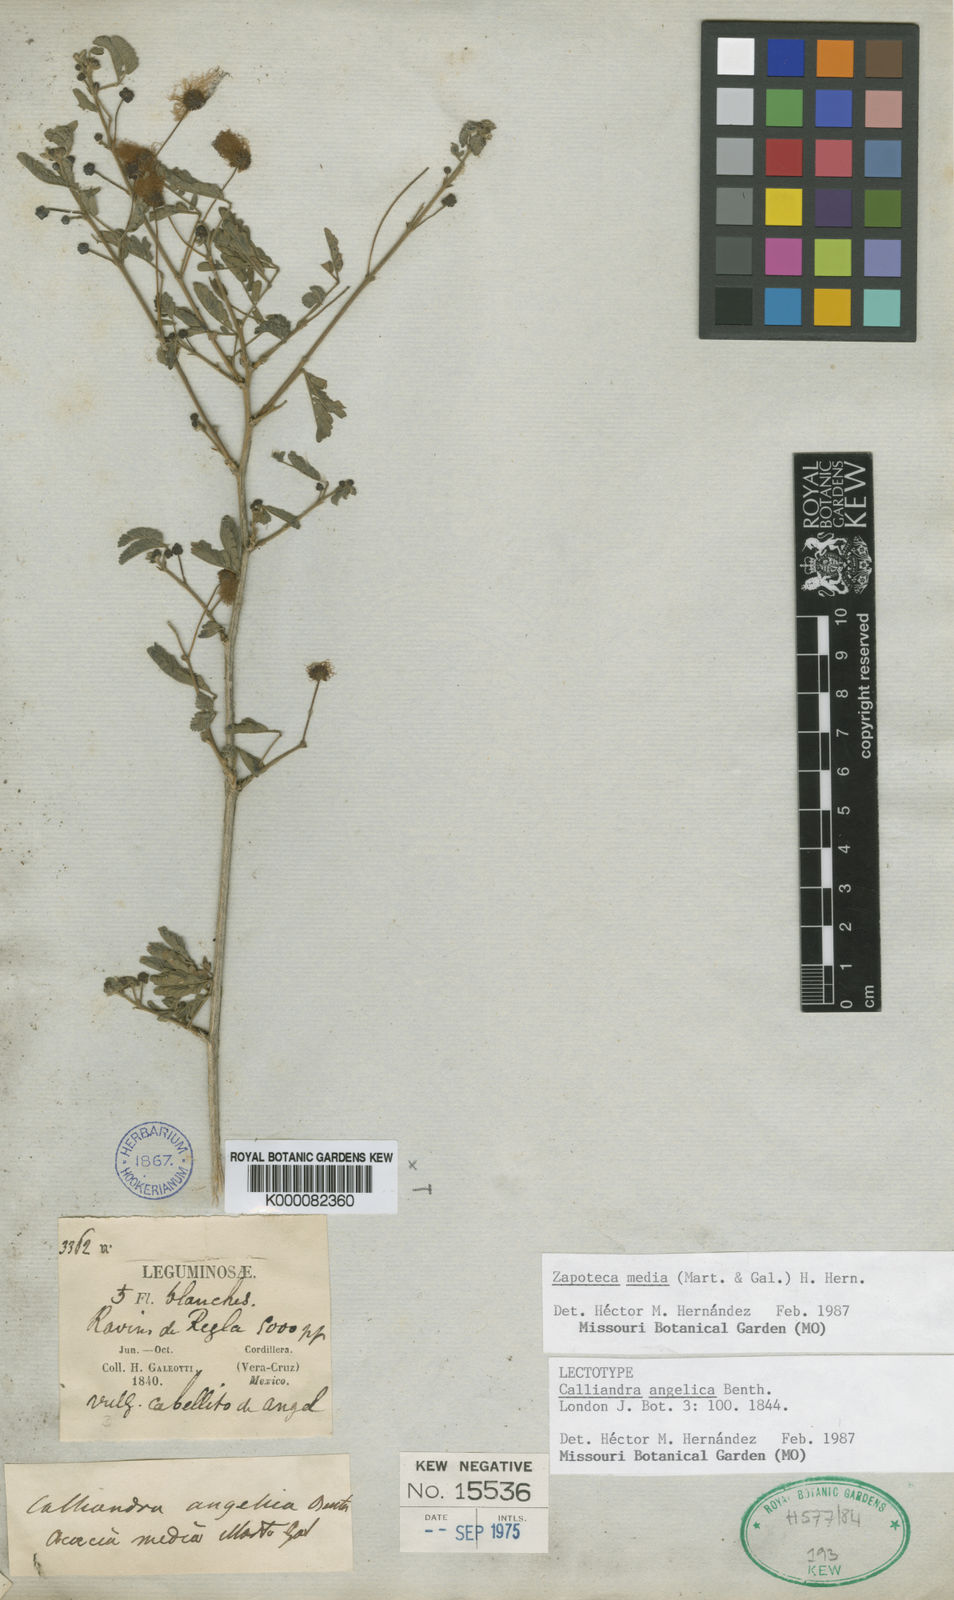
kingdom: Plantae
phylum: Tracheophyta
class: Magnoliopsida
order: Fabales
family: Fabaceae
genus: Zapoteca
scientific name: Zapoteca media
